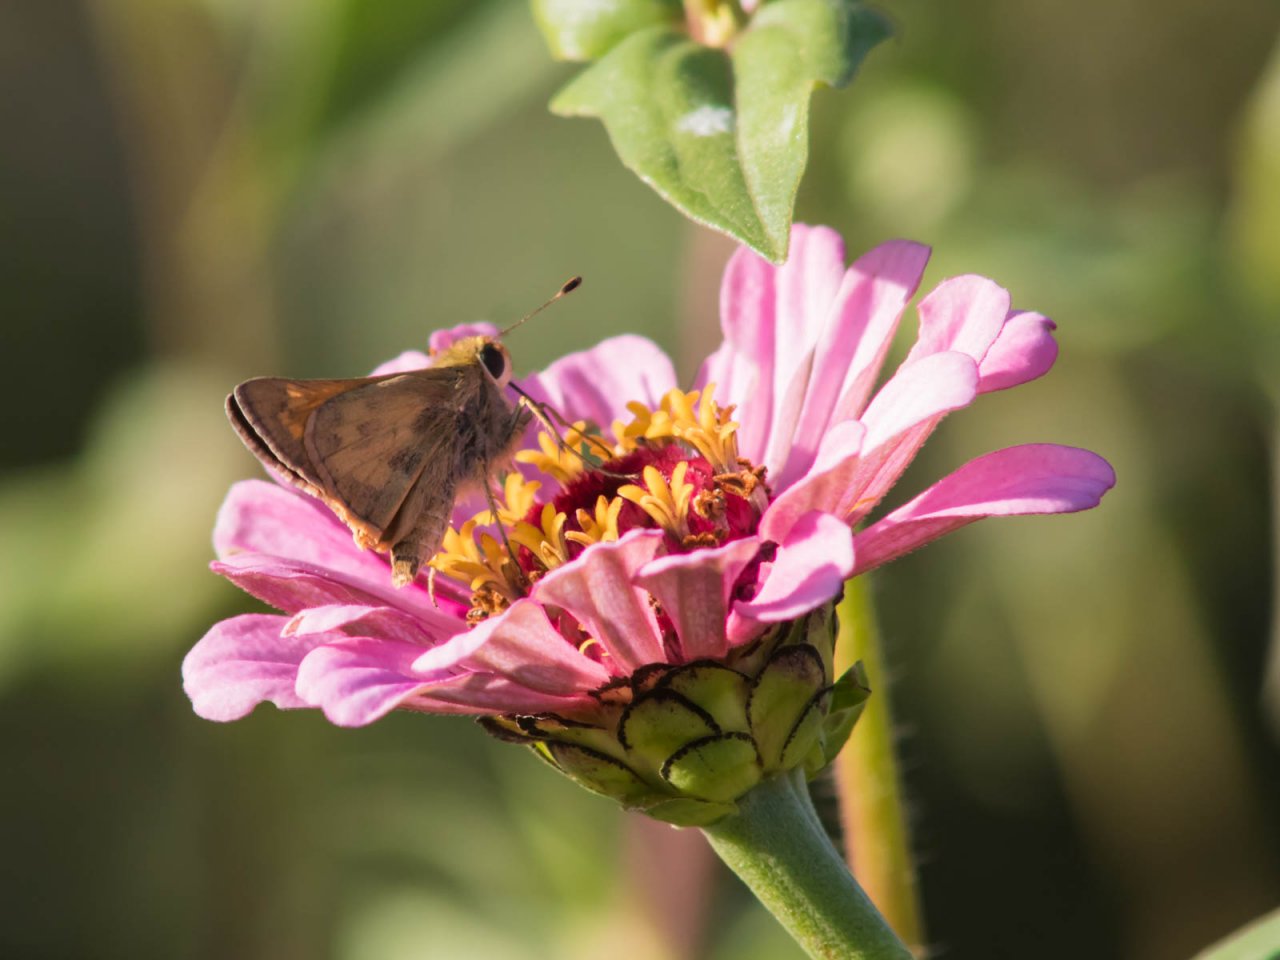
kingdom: Animalia
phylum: Arthropoda
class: Insecta
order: Lepidoptera
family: Hesperiidae
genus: Atalopedes
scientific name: Atalopedes campestris
